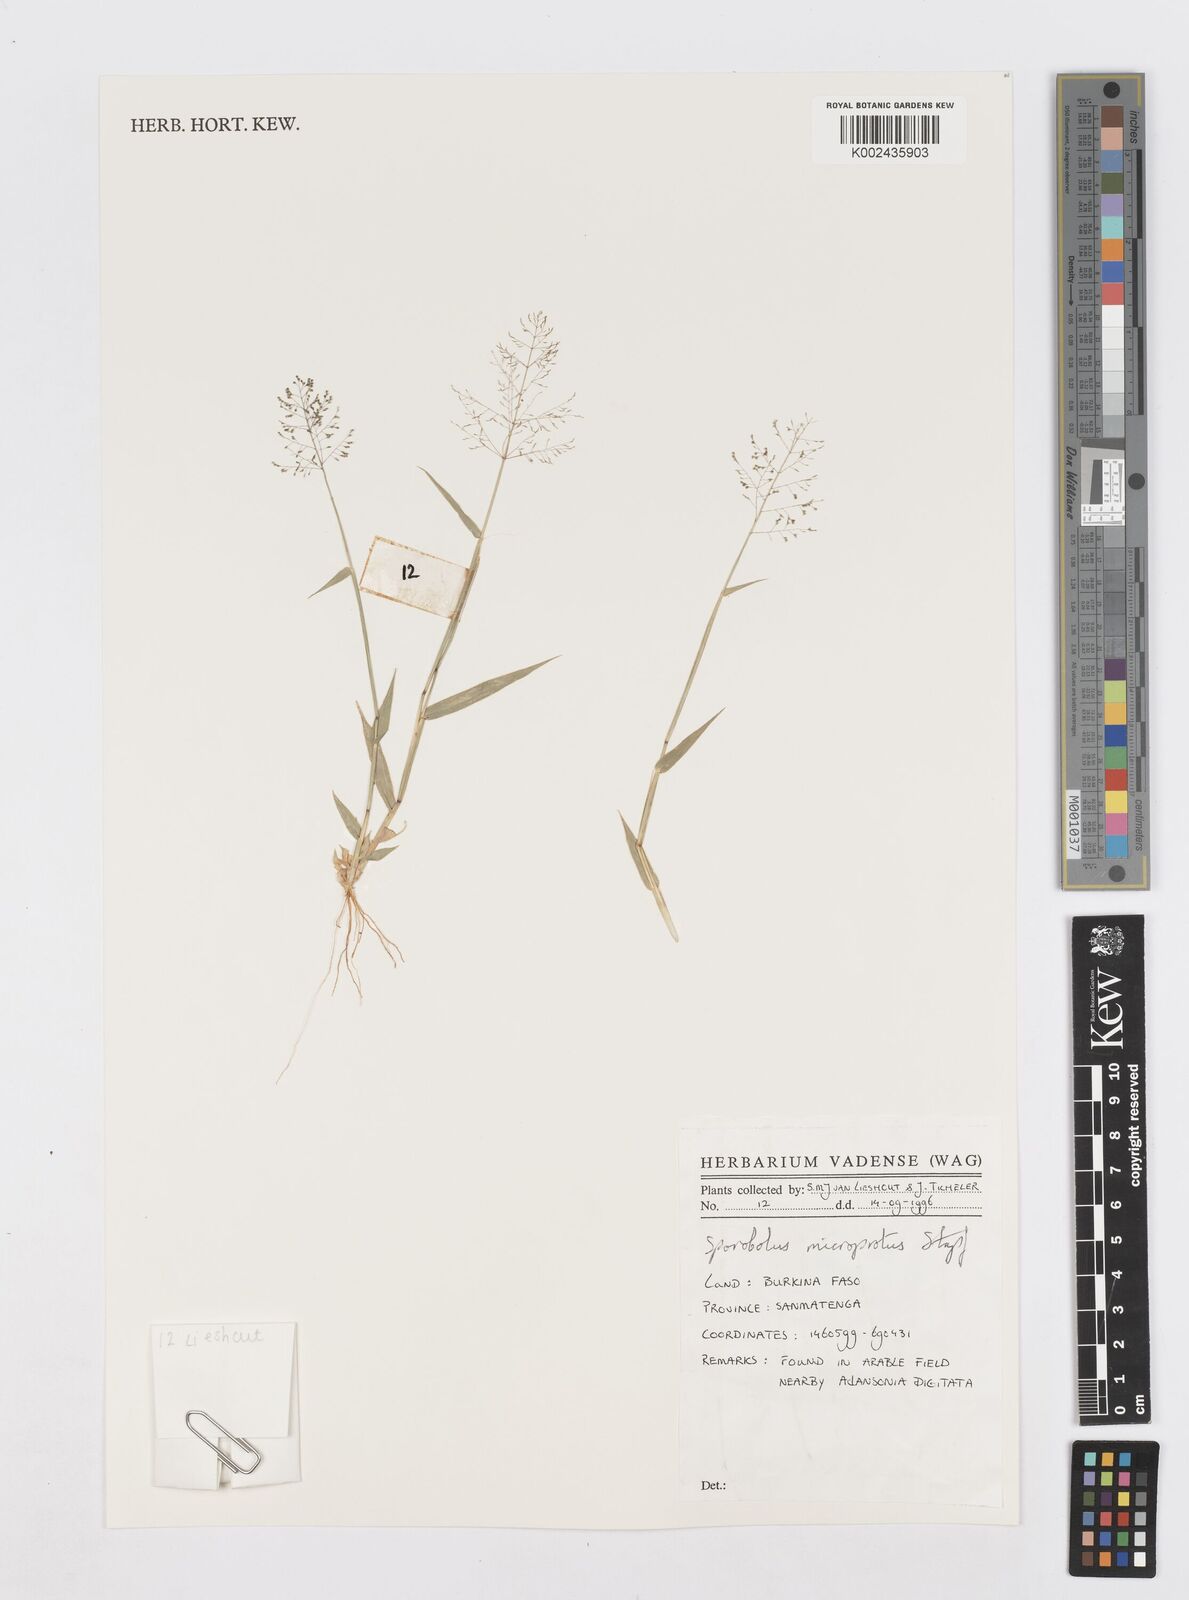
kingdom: Plantae
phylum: Tracheophyta
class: Liliopsida
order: Poales
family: Poaceae
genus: Sporobolus
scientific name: Sporobolus microprotus
